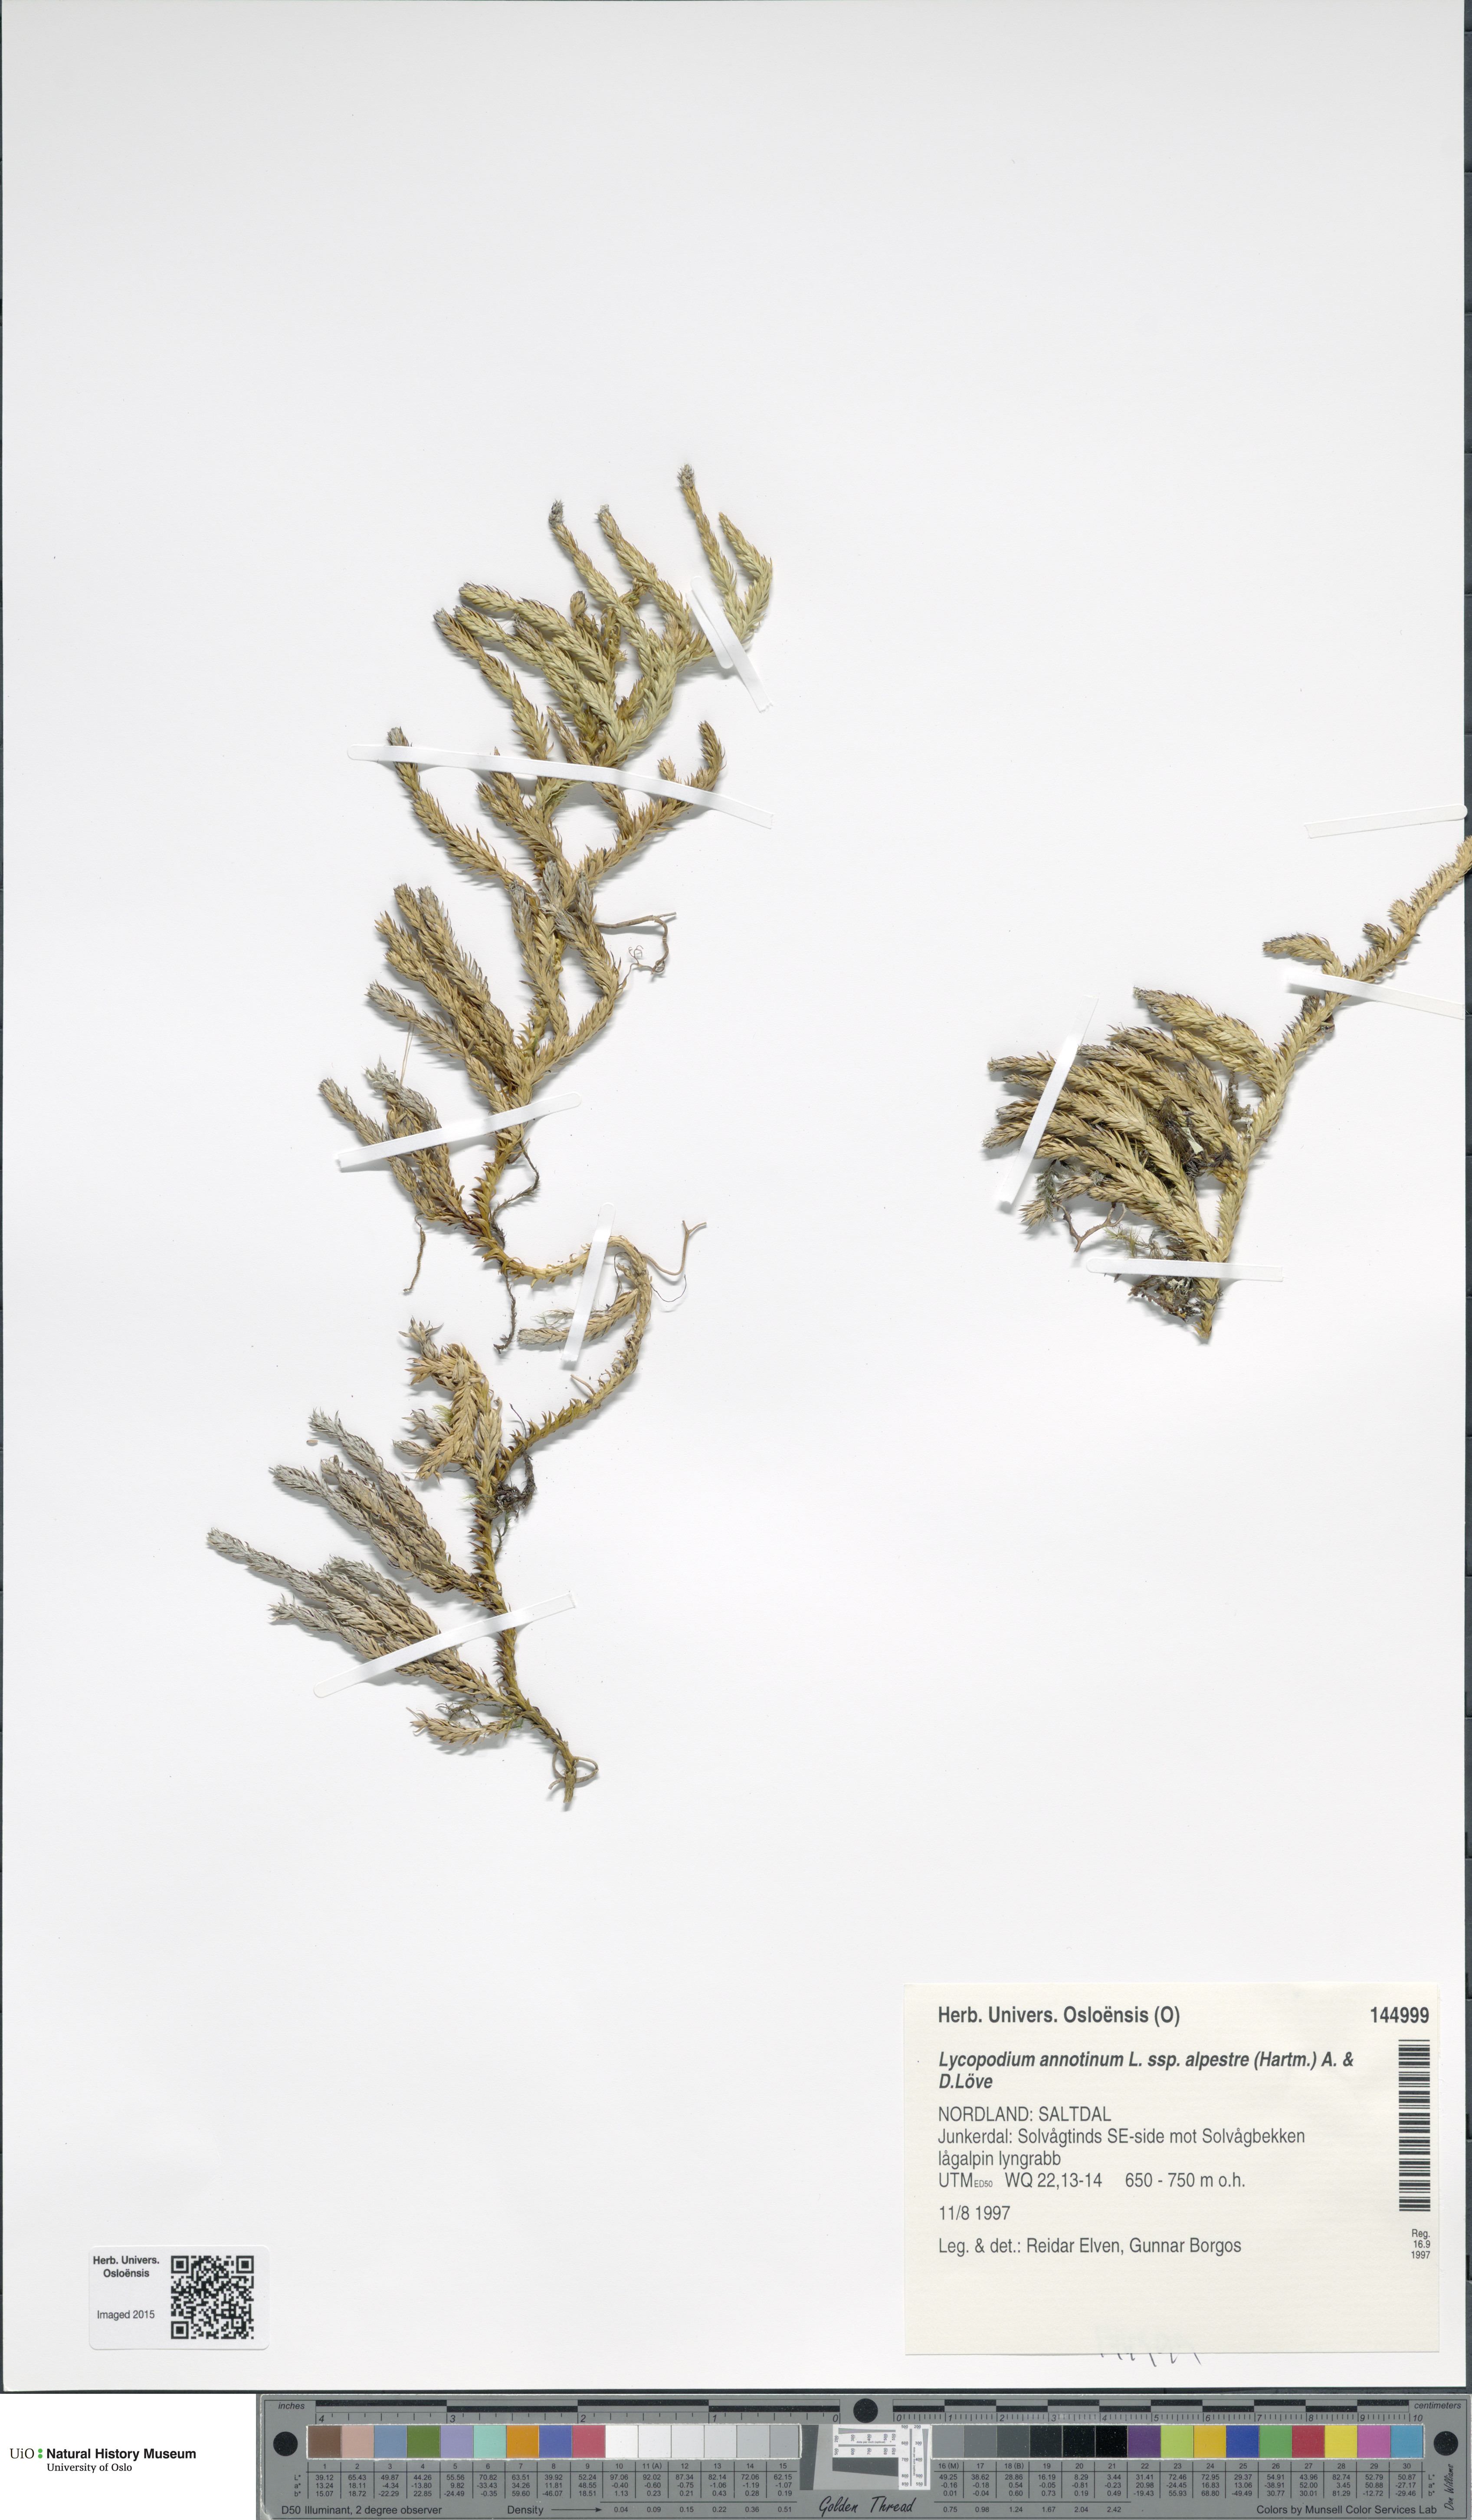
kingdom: Plantae
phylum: Tracheophyta
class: Lycopodiopsida
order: Lycopodiales
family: Lycopodiaceae
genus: Spinulum
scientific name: Spinulum annotinum
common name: Interrupted club-moss
